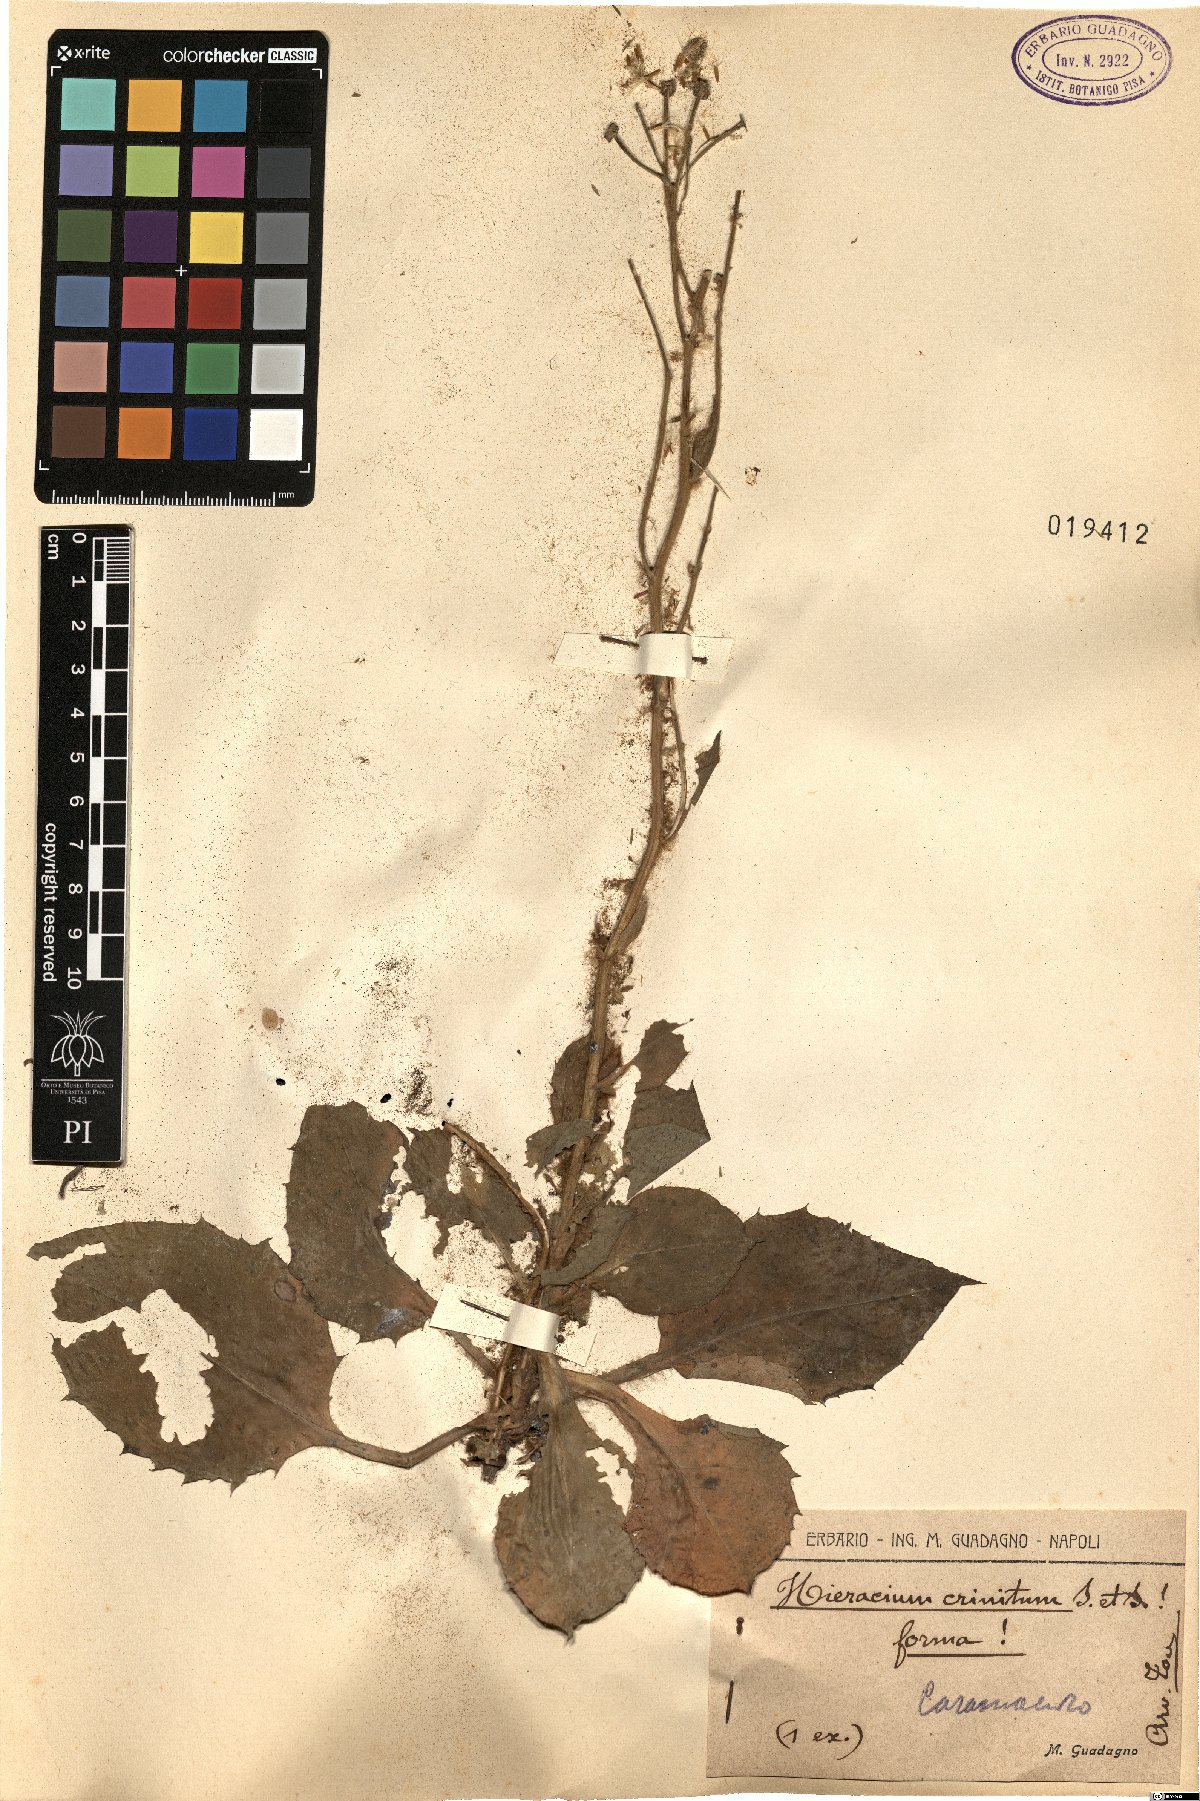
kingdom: Plantae
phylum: Tracheophyta
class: Magnoliopsida
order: Asterales
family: Asteraceae
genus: Hieracium
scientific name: Hieracium racemosum
